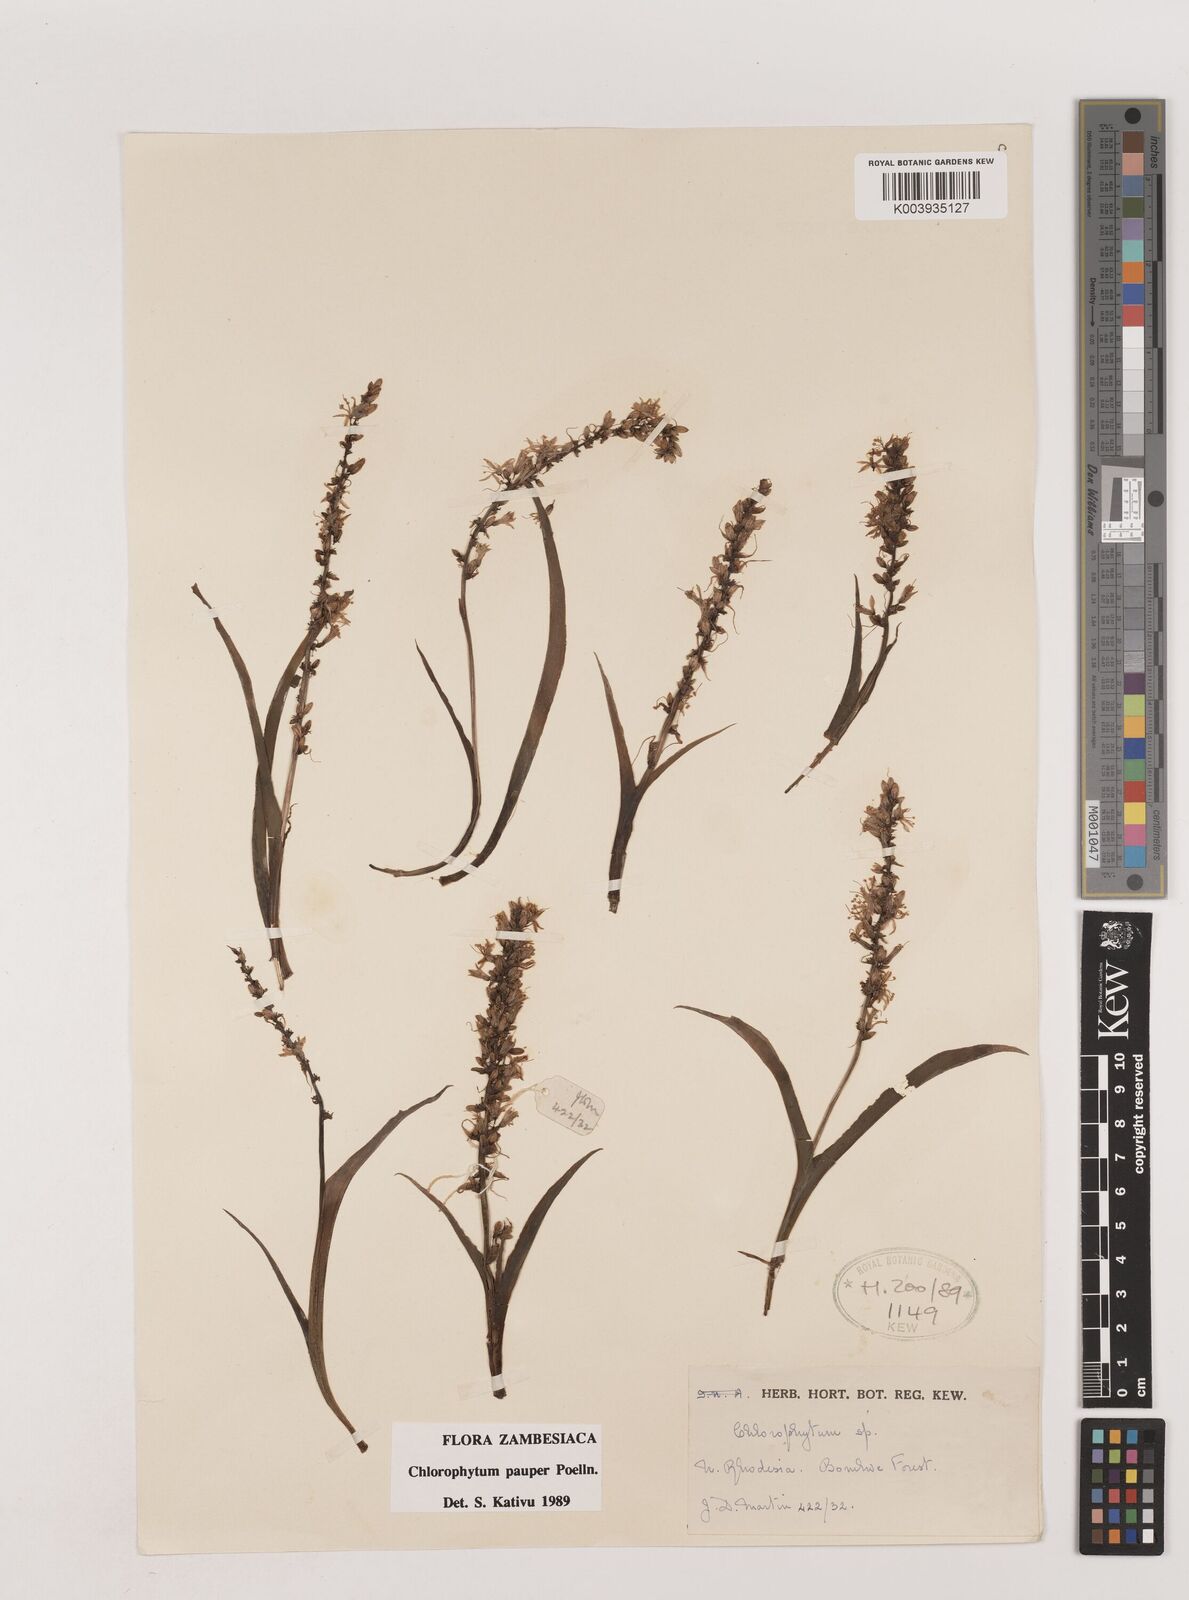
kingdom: Plantae
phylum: Tracheophyta
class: Liliopsida
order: Asparagales
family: Asparagaceae
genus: Chlorophytum
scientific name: Chlorophytum pauper
